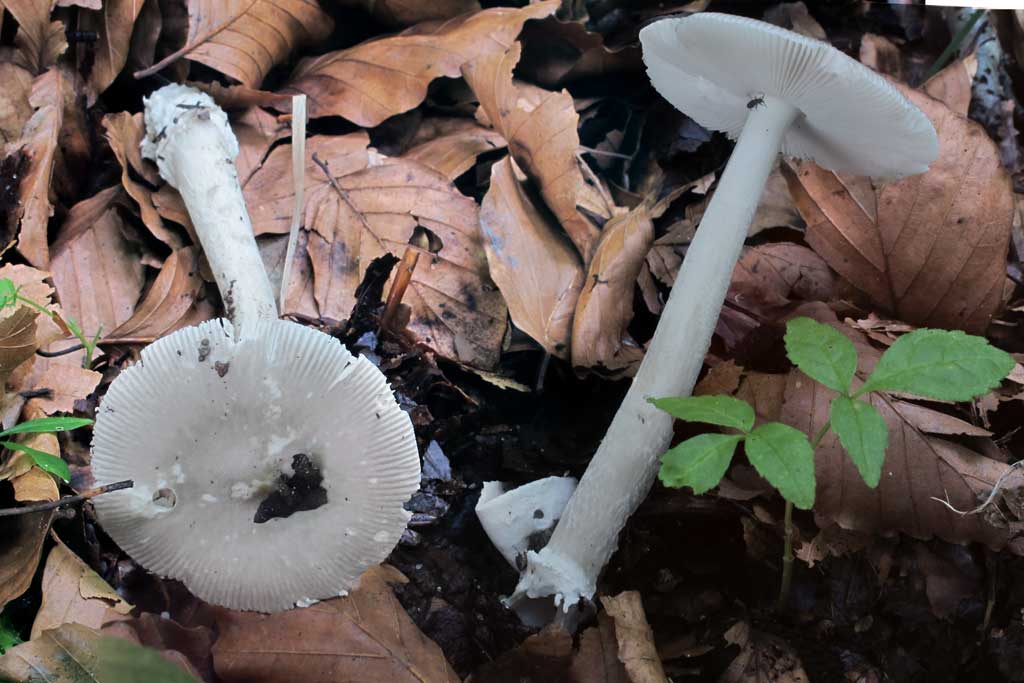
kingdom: Fungi
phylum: Basidiomycota
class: Agaricomycetes
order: Agaricales
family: Amanitaceae
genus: Amanita
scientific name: Amanita vaginata
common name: grå kam-fluesvamp
